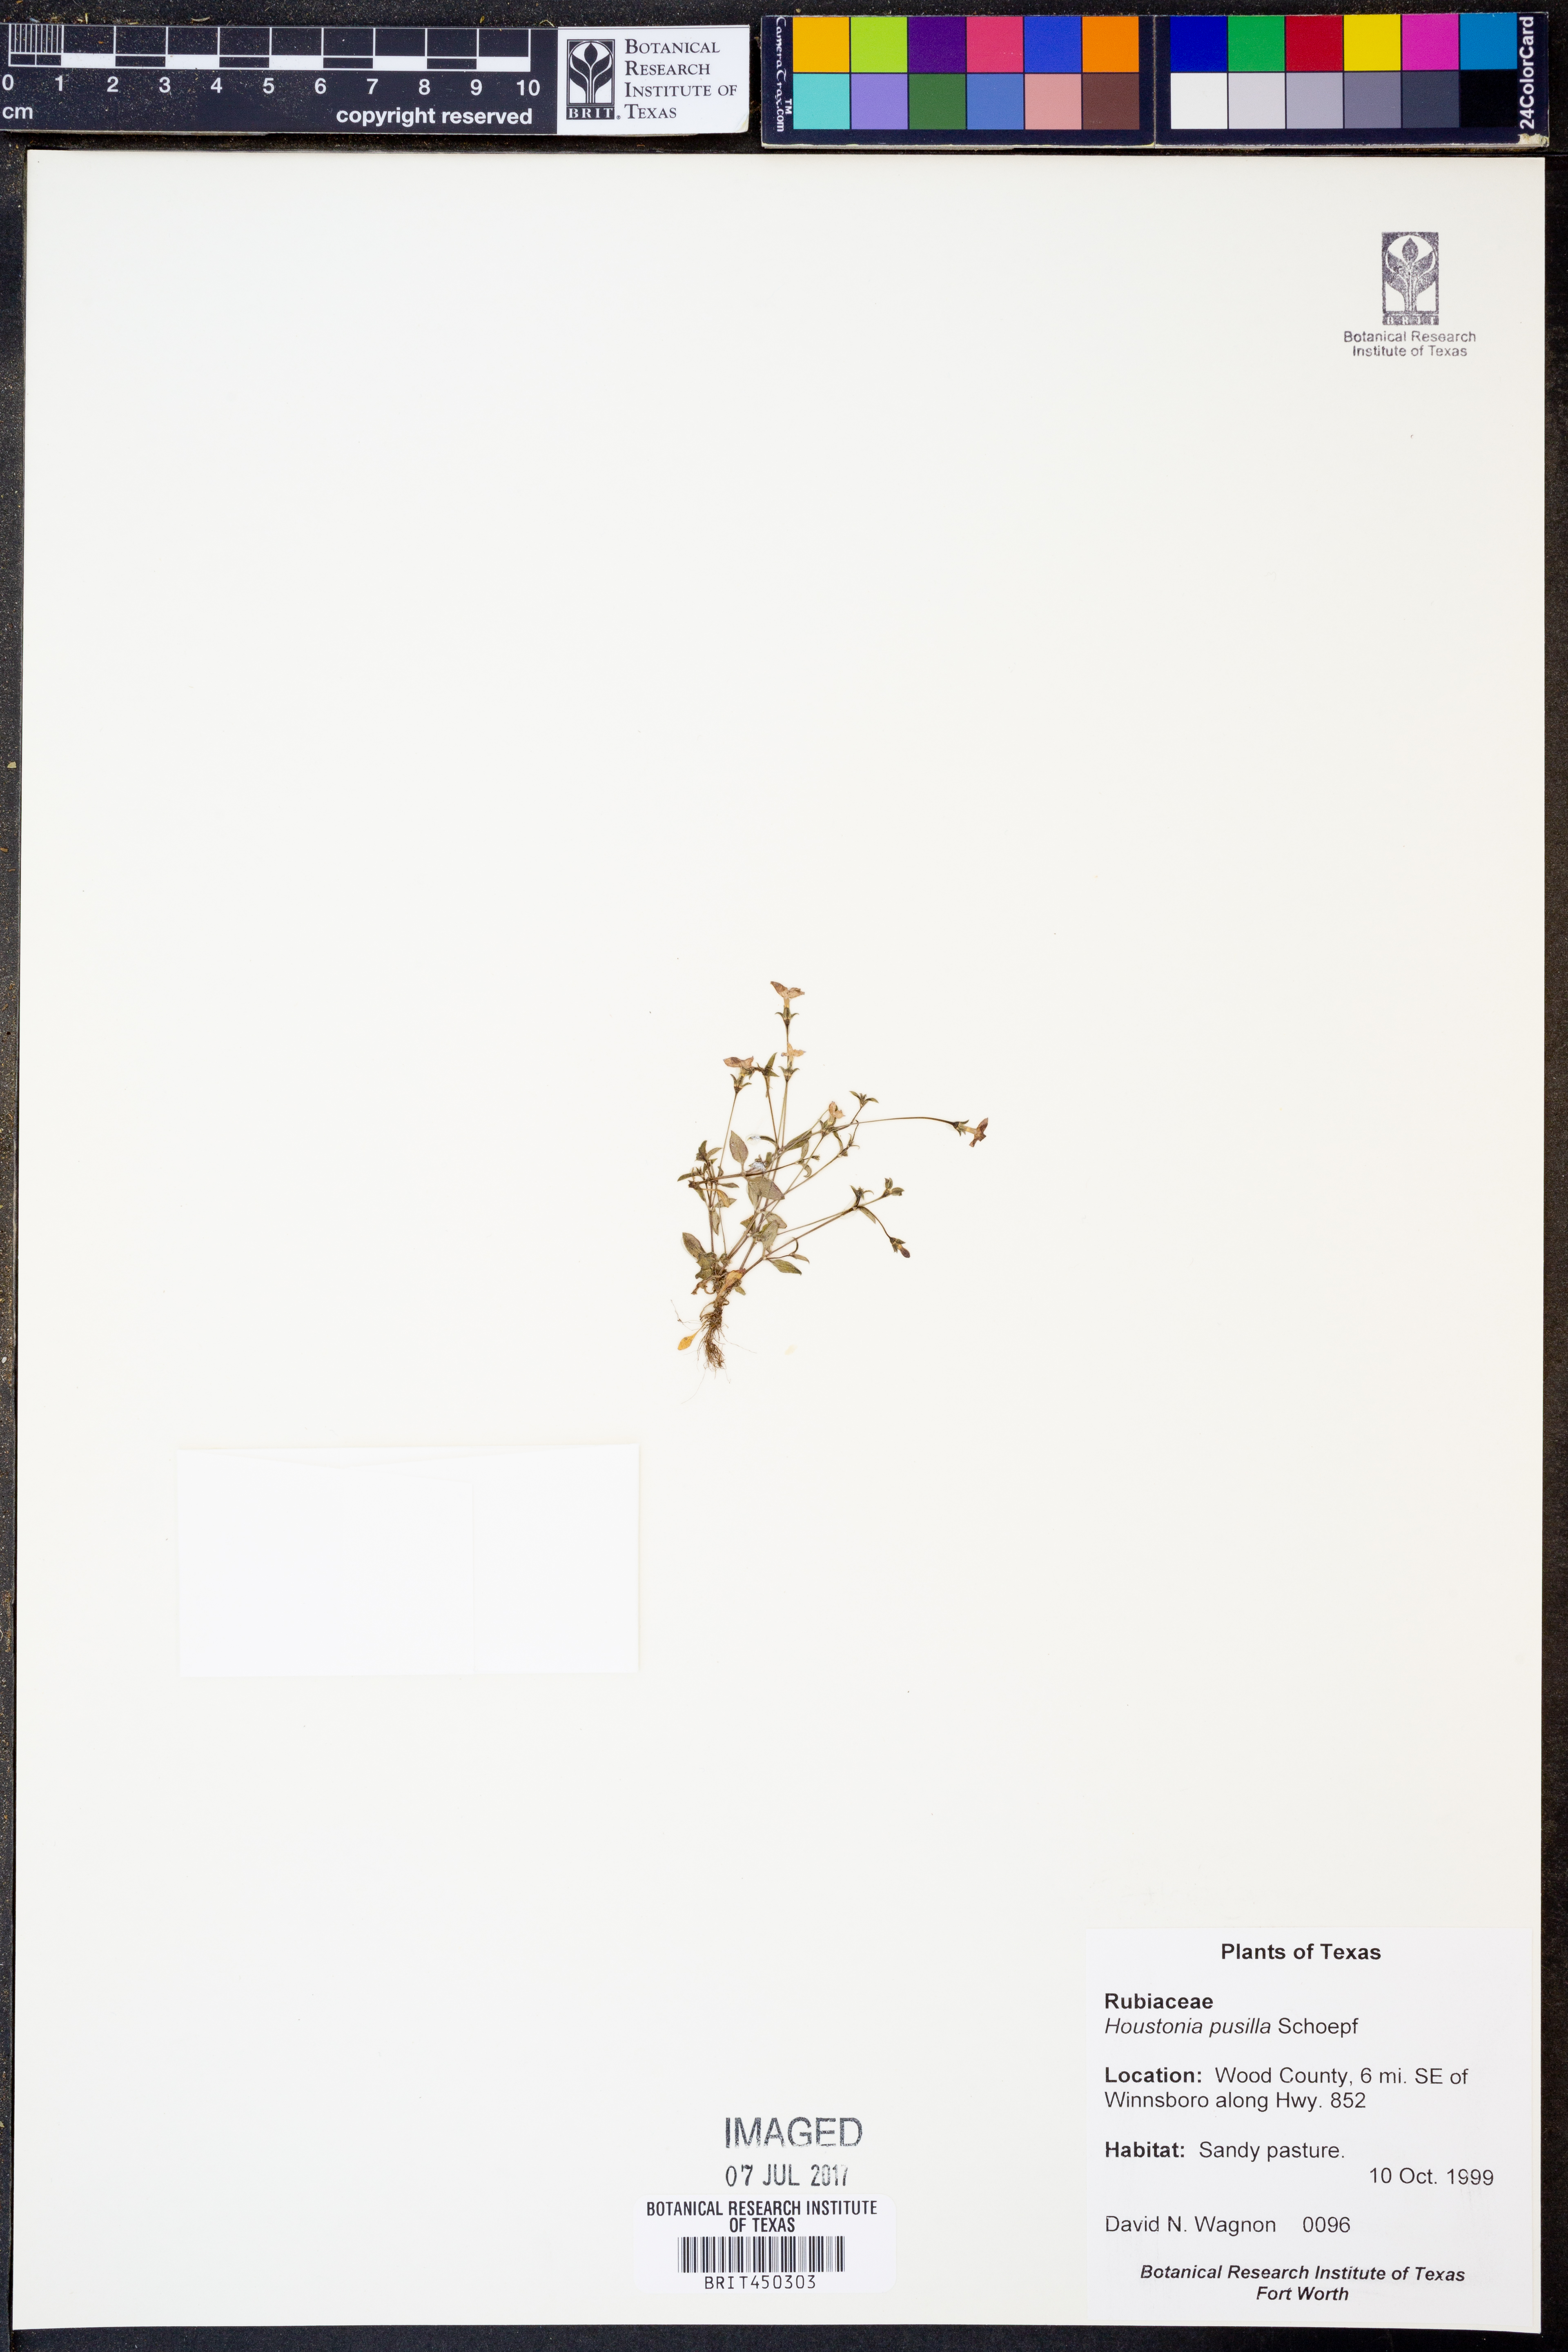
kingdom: Plantae
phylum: Tracheophyta
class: Magnoliopsida
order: Gentianales
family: Rubiaceae
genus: Houstonia
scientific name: Houstonia pusilla
